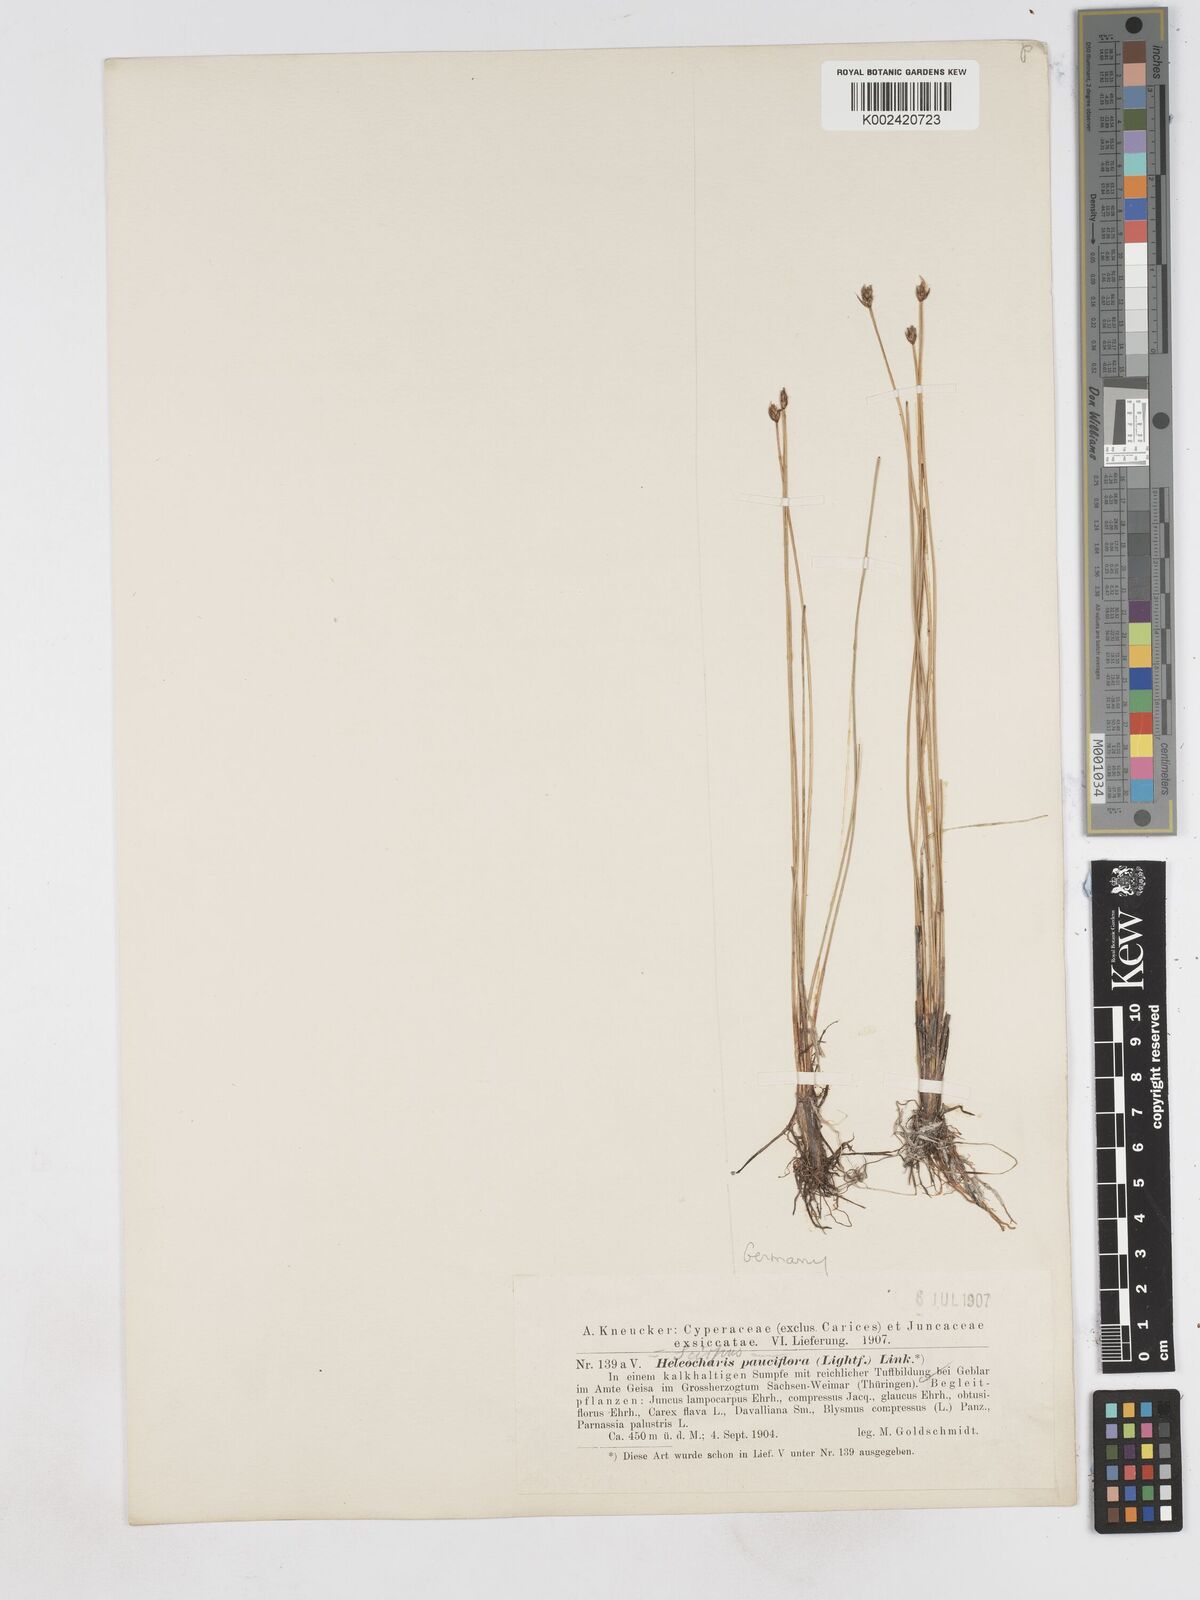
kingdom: Plantae
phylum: Tracheophyta
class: Liliopsida
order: Poales
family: Cyperaceae
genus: Eleocharis
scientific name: Eleocharis quinqueflora
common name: Few-flowered spike-rush
